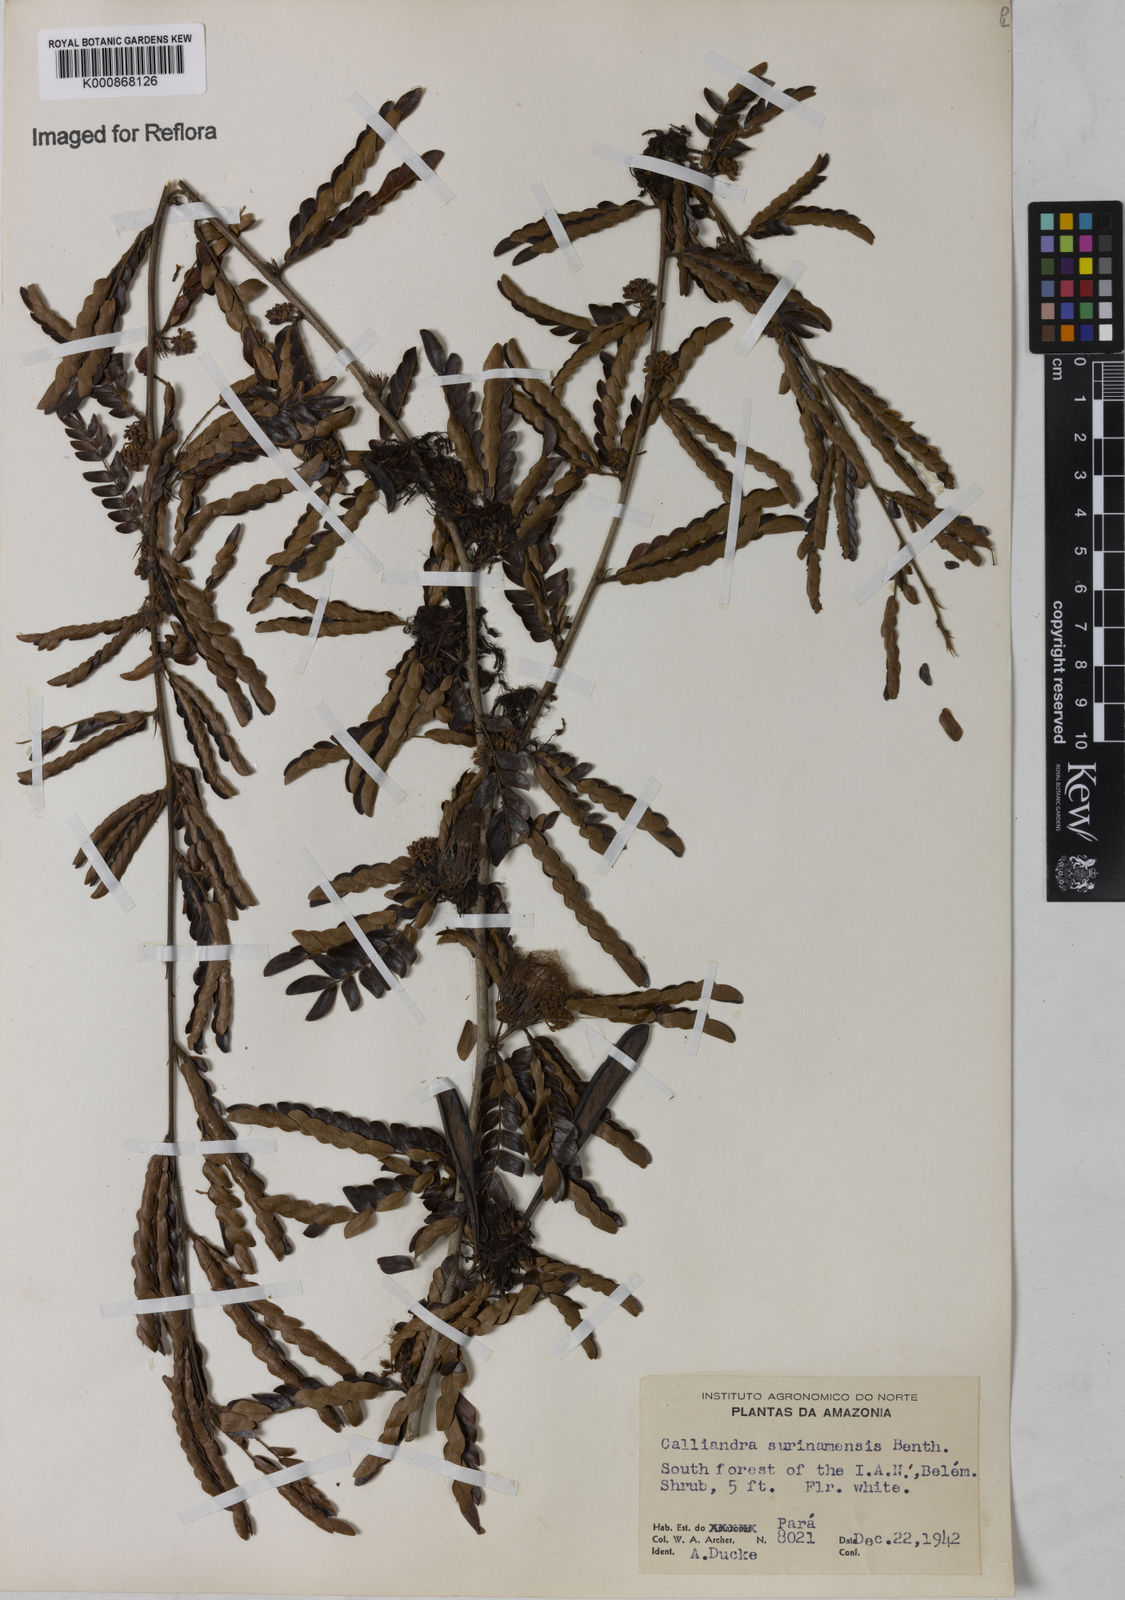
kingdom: Plantae
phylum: Tracheophyta
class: Magnoliopsida
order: Fabales
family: Fabaceae
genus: Calliandra
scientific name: Calliandra surinamensis
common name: Pink powder puff
